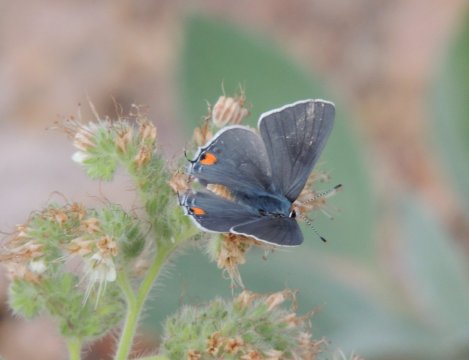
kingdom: Animalia
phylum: Arthropoda
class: Insecta
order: Lepidoptera
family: Lycaenidae
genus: Strymon
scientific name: Strymon melinus
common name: Gray Hairstreak
